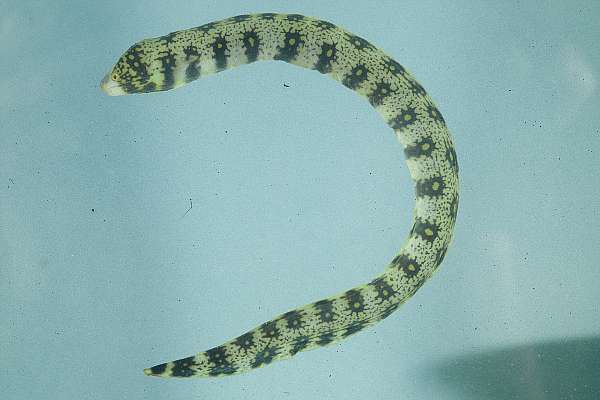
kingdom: Animalia
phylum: Chordata
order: Anguilliformes
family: Muraenidae
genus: Echidna
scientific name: Echidna nebulosa
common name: Snowflake moray
